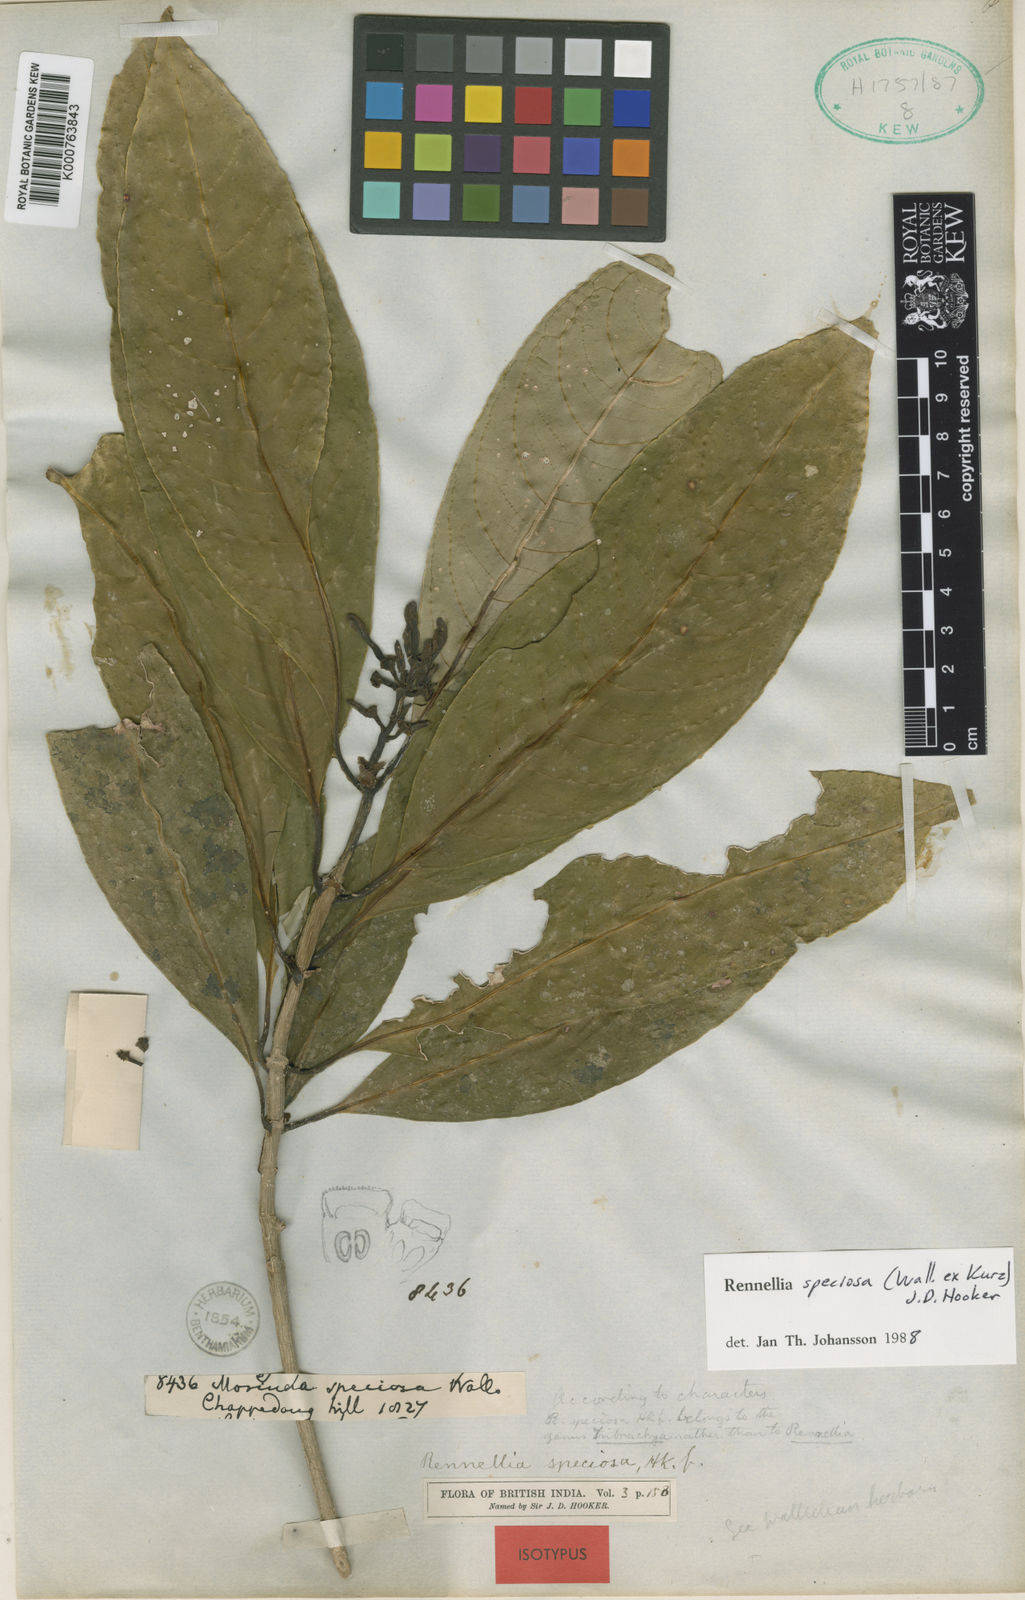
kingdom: Plantae
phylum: Tracheophyta
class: Magnoliopsida
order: Gentianales
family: Rubiaceae
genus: Rennellia
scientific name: Rennellia speciosa
